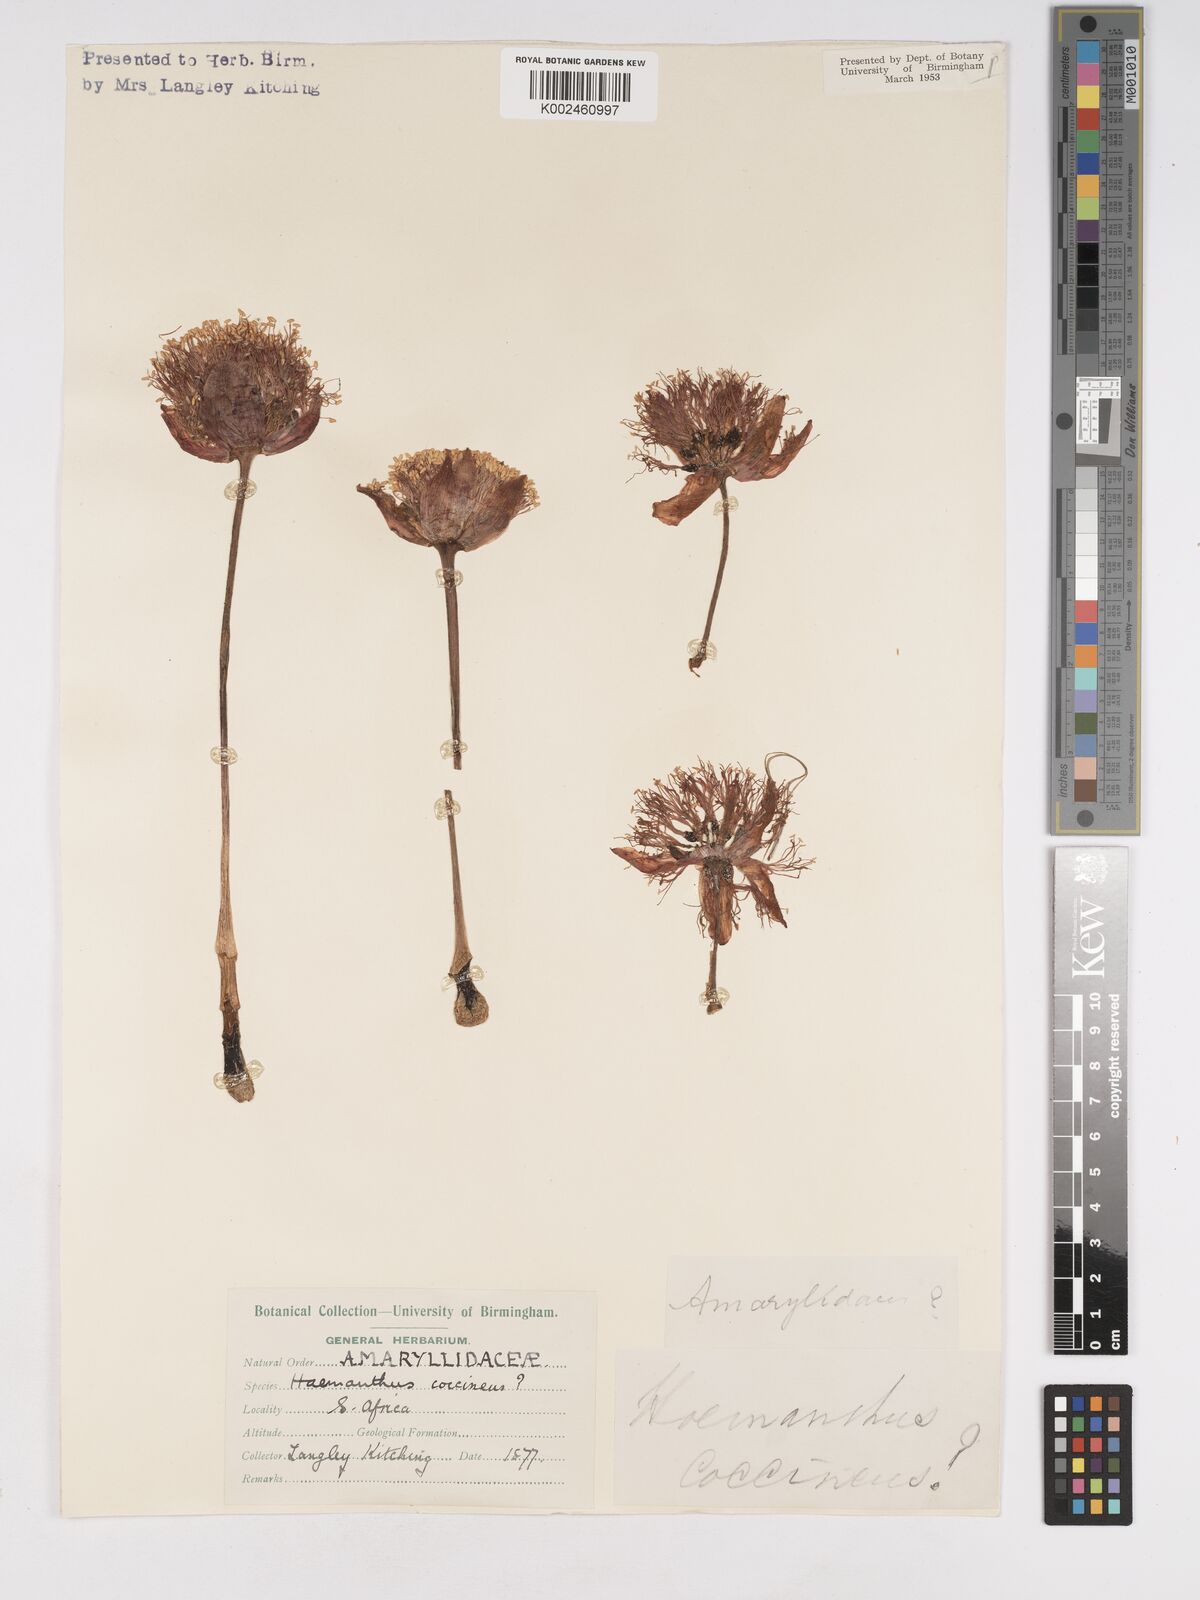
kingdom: Plantae
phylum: Tracheophyta
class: Liliopsida
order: Asparagales
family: Amaryllidaceae
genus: Haemanthus
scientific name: Haemanthus
